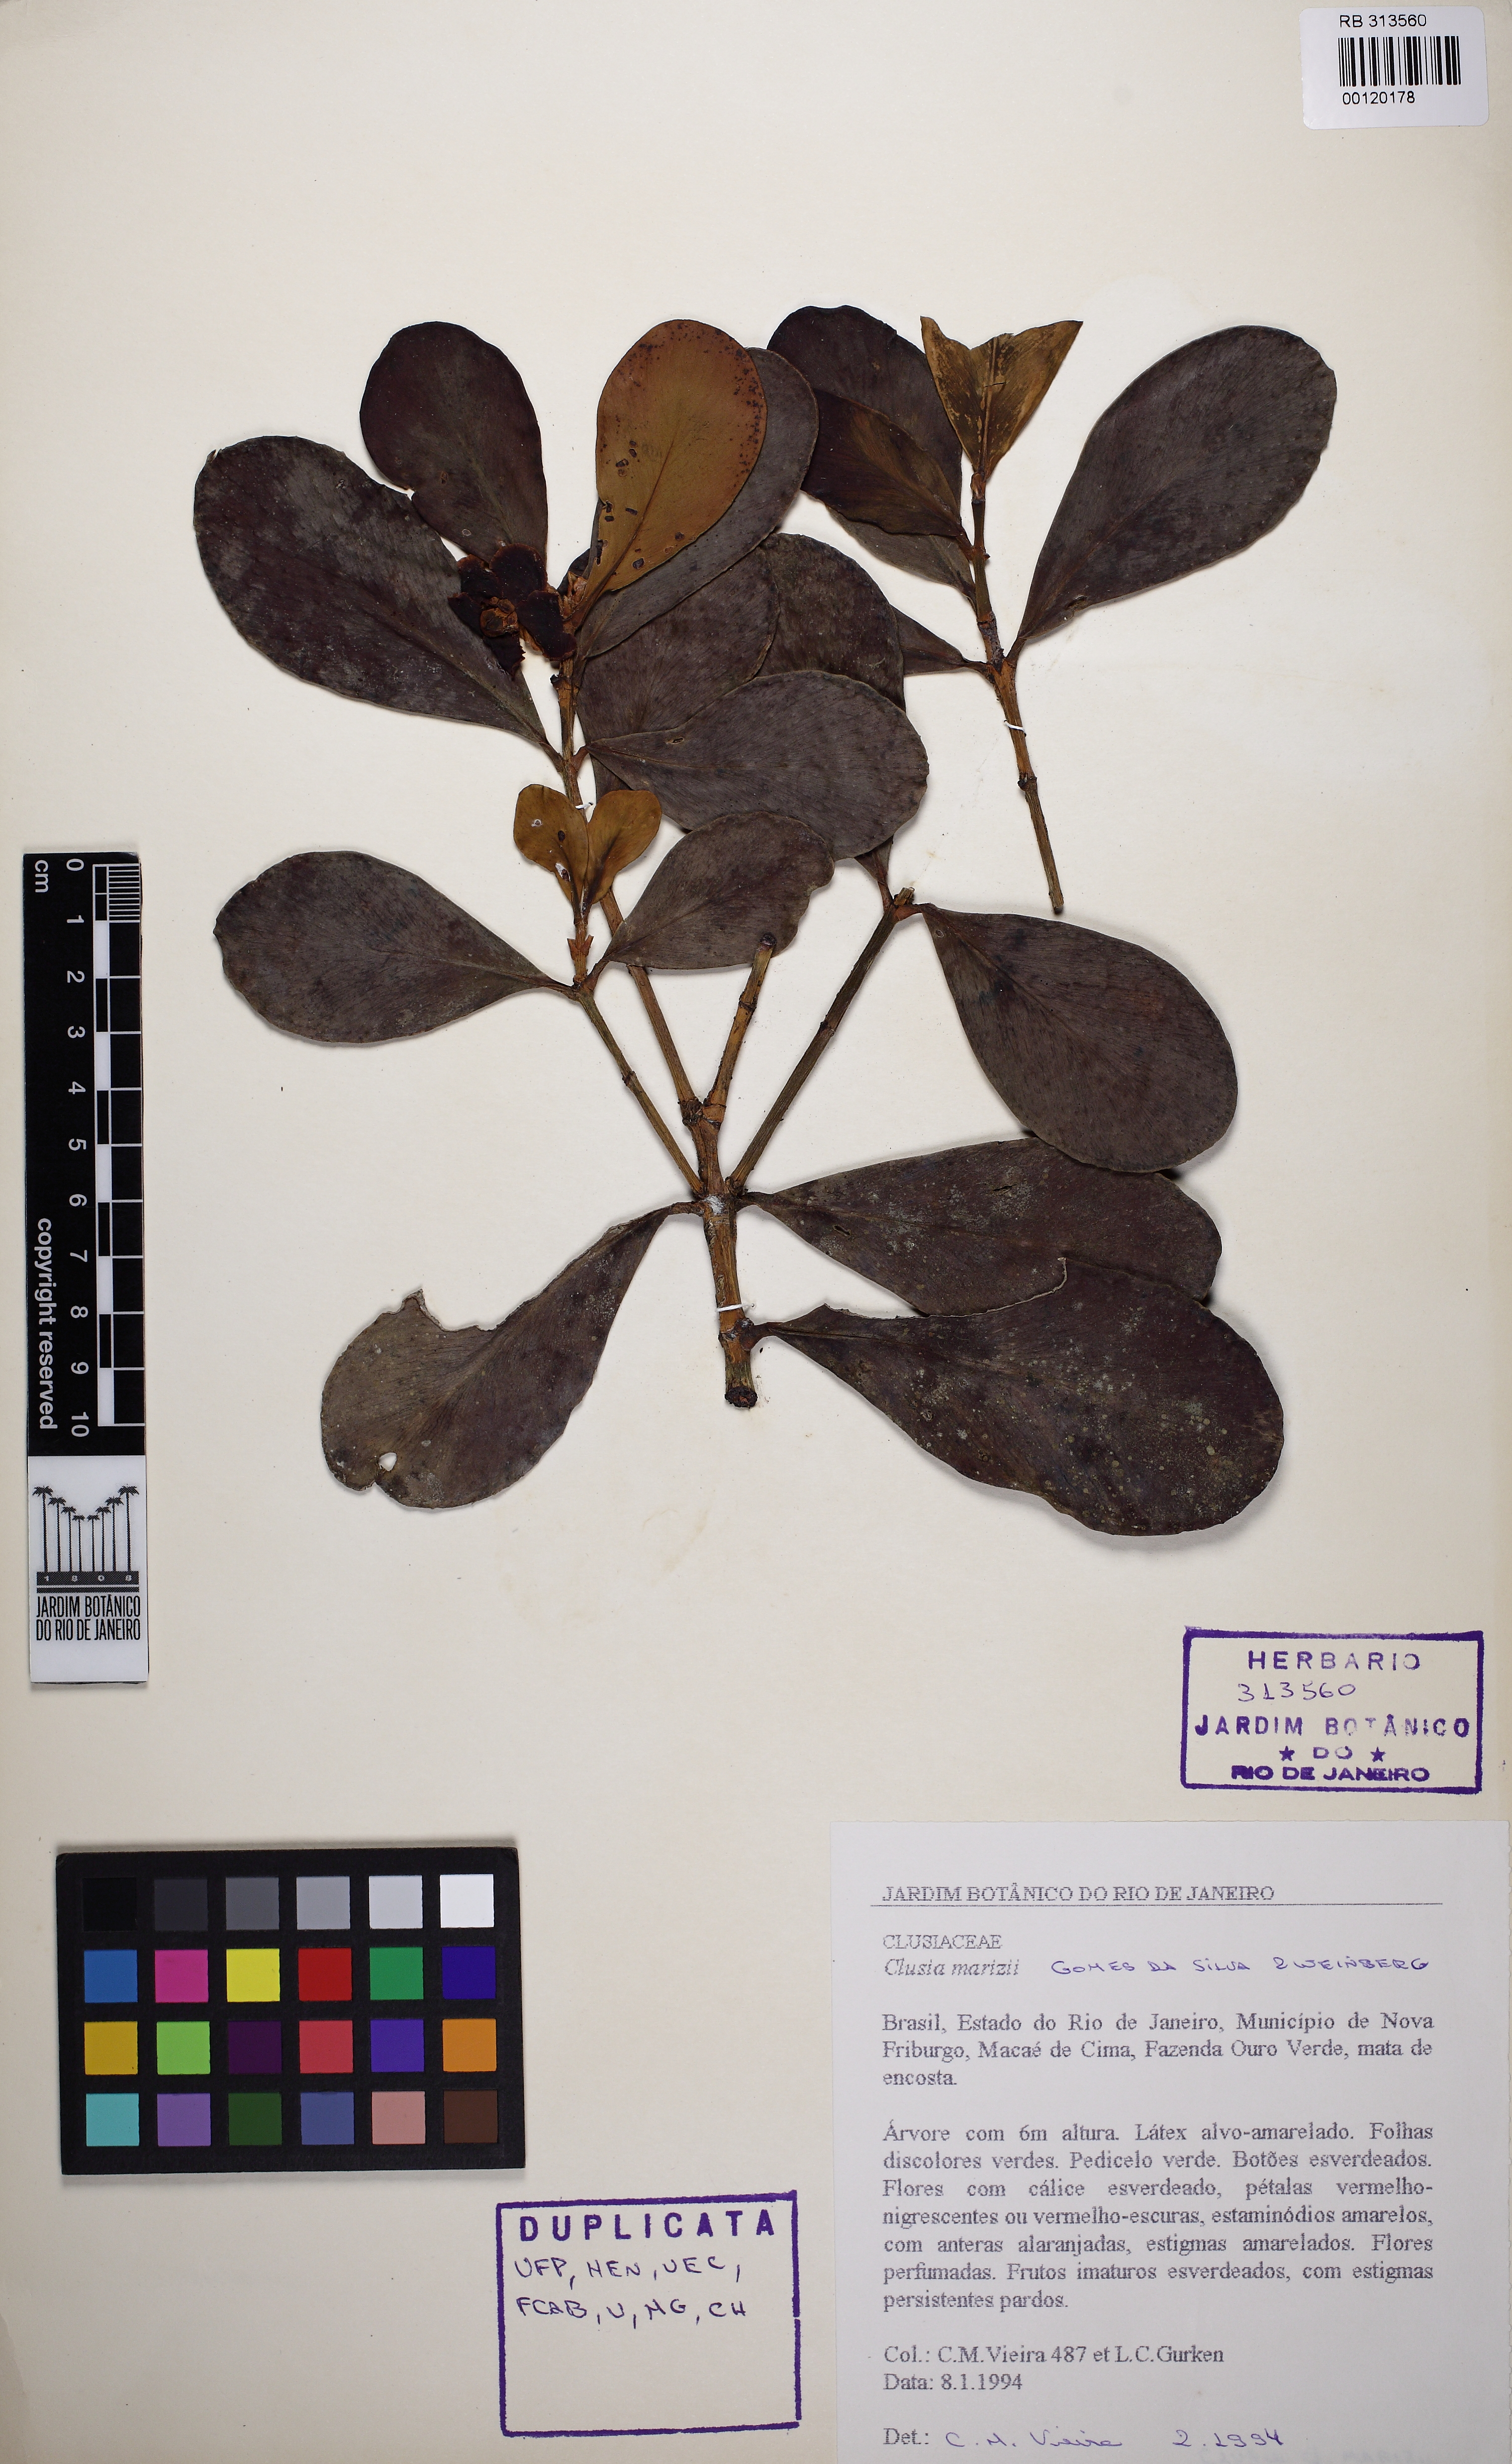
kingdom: Plantae
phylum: Tracheophyta
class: Magnoliopsida
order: Malpighiales
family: Clusiaceae
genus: Clusia
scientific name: Clusia organensis
